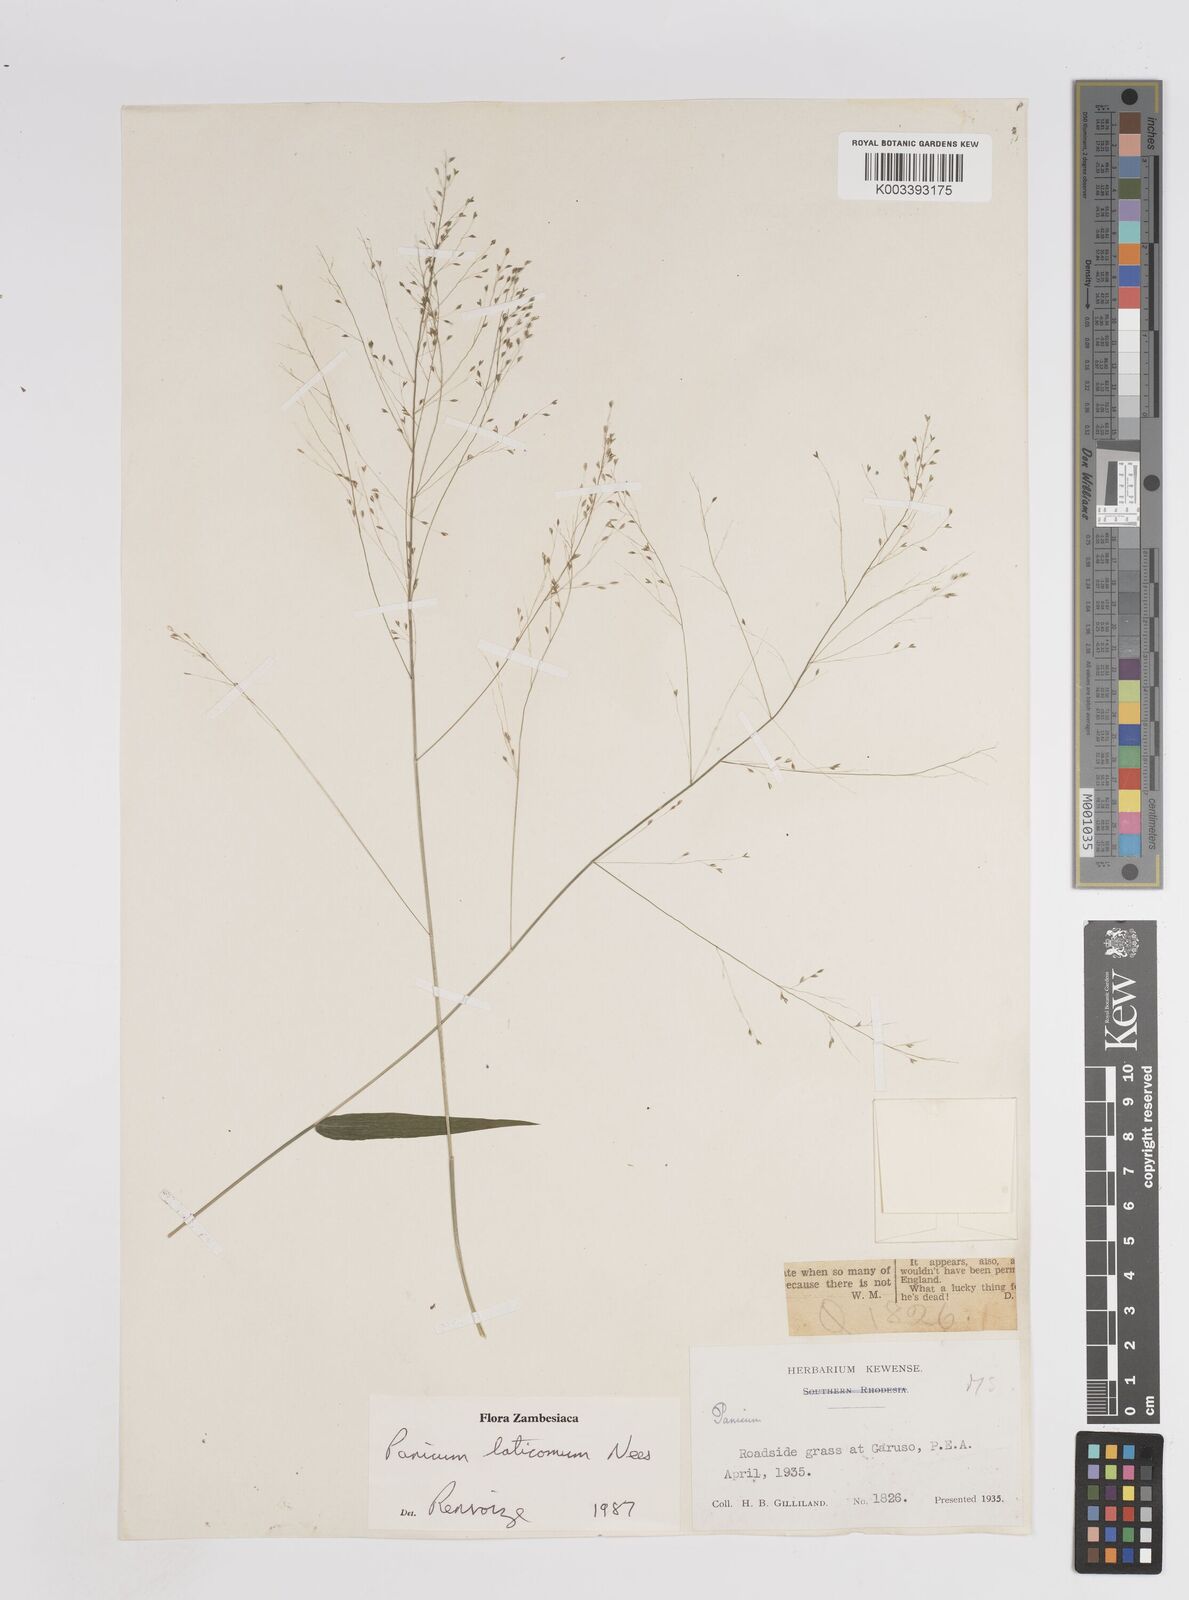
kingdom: Plantae
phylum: Tracheophyta
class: Liliopsida
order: Poales
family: Poaceae
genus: Panicum
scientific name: Panicum laticomum
